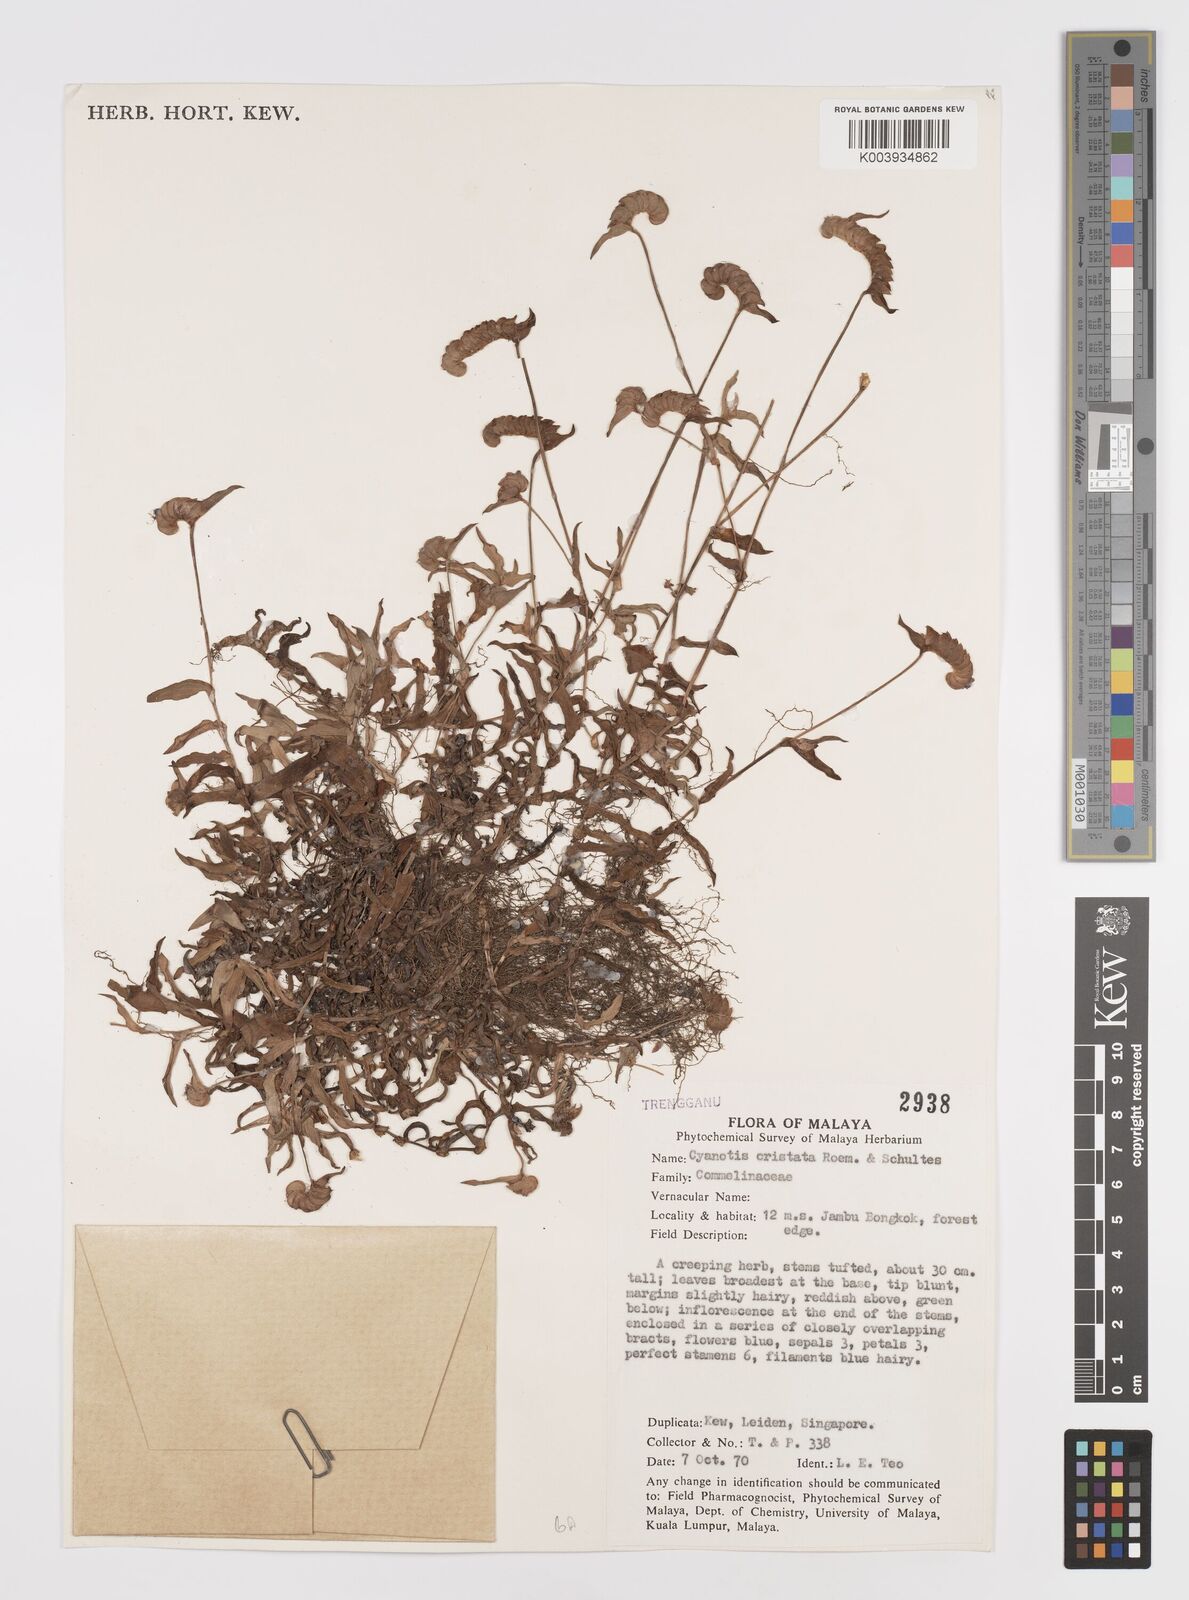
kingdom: Plantae
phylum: Tracheophyta
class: Liliopsida
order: Commelinales
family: Commelinaceae
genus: Cyanotis
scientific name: Cyanotis cristata
